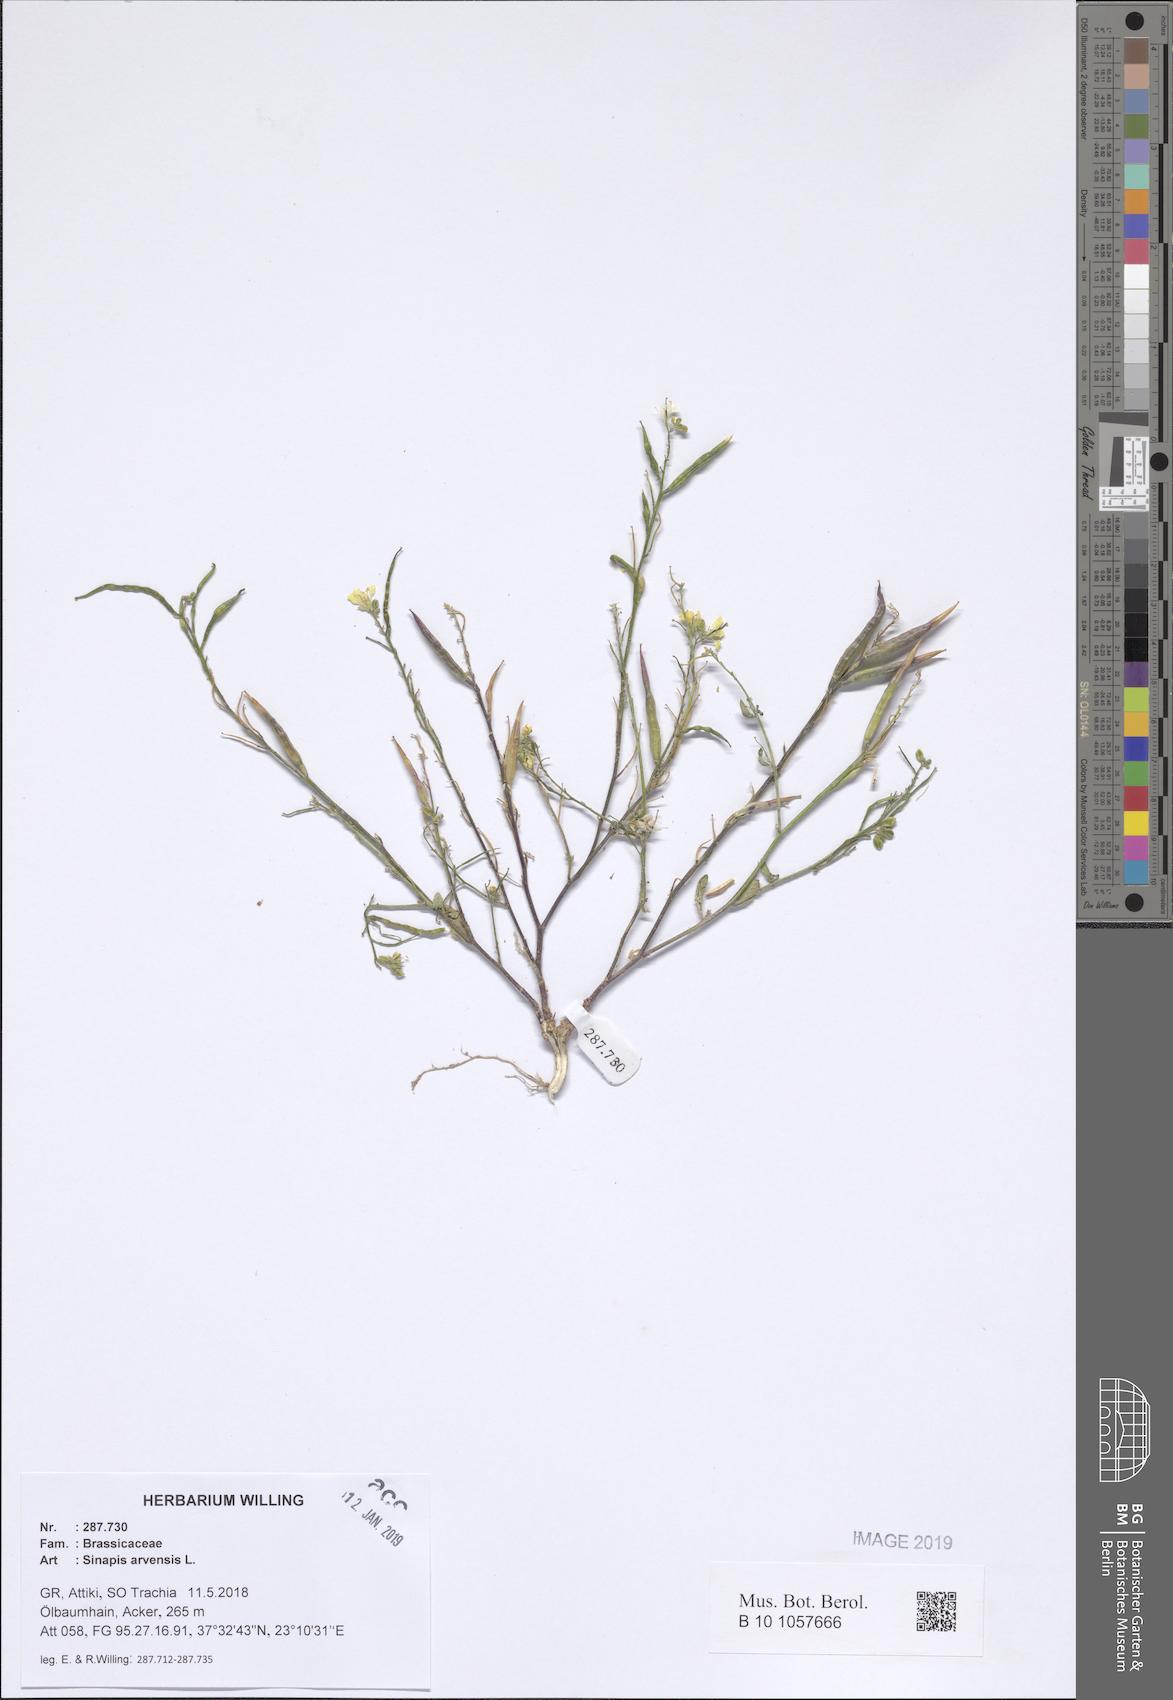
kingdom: Plantae
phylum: Tracheophyta
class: Magnoliopsida
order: Brassicales
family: Brassicaceae
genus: Sinapis
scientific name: Sinapis arvensis
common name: Charlock
